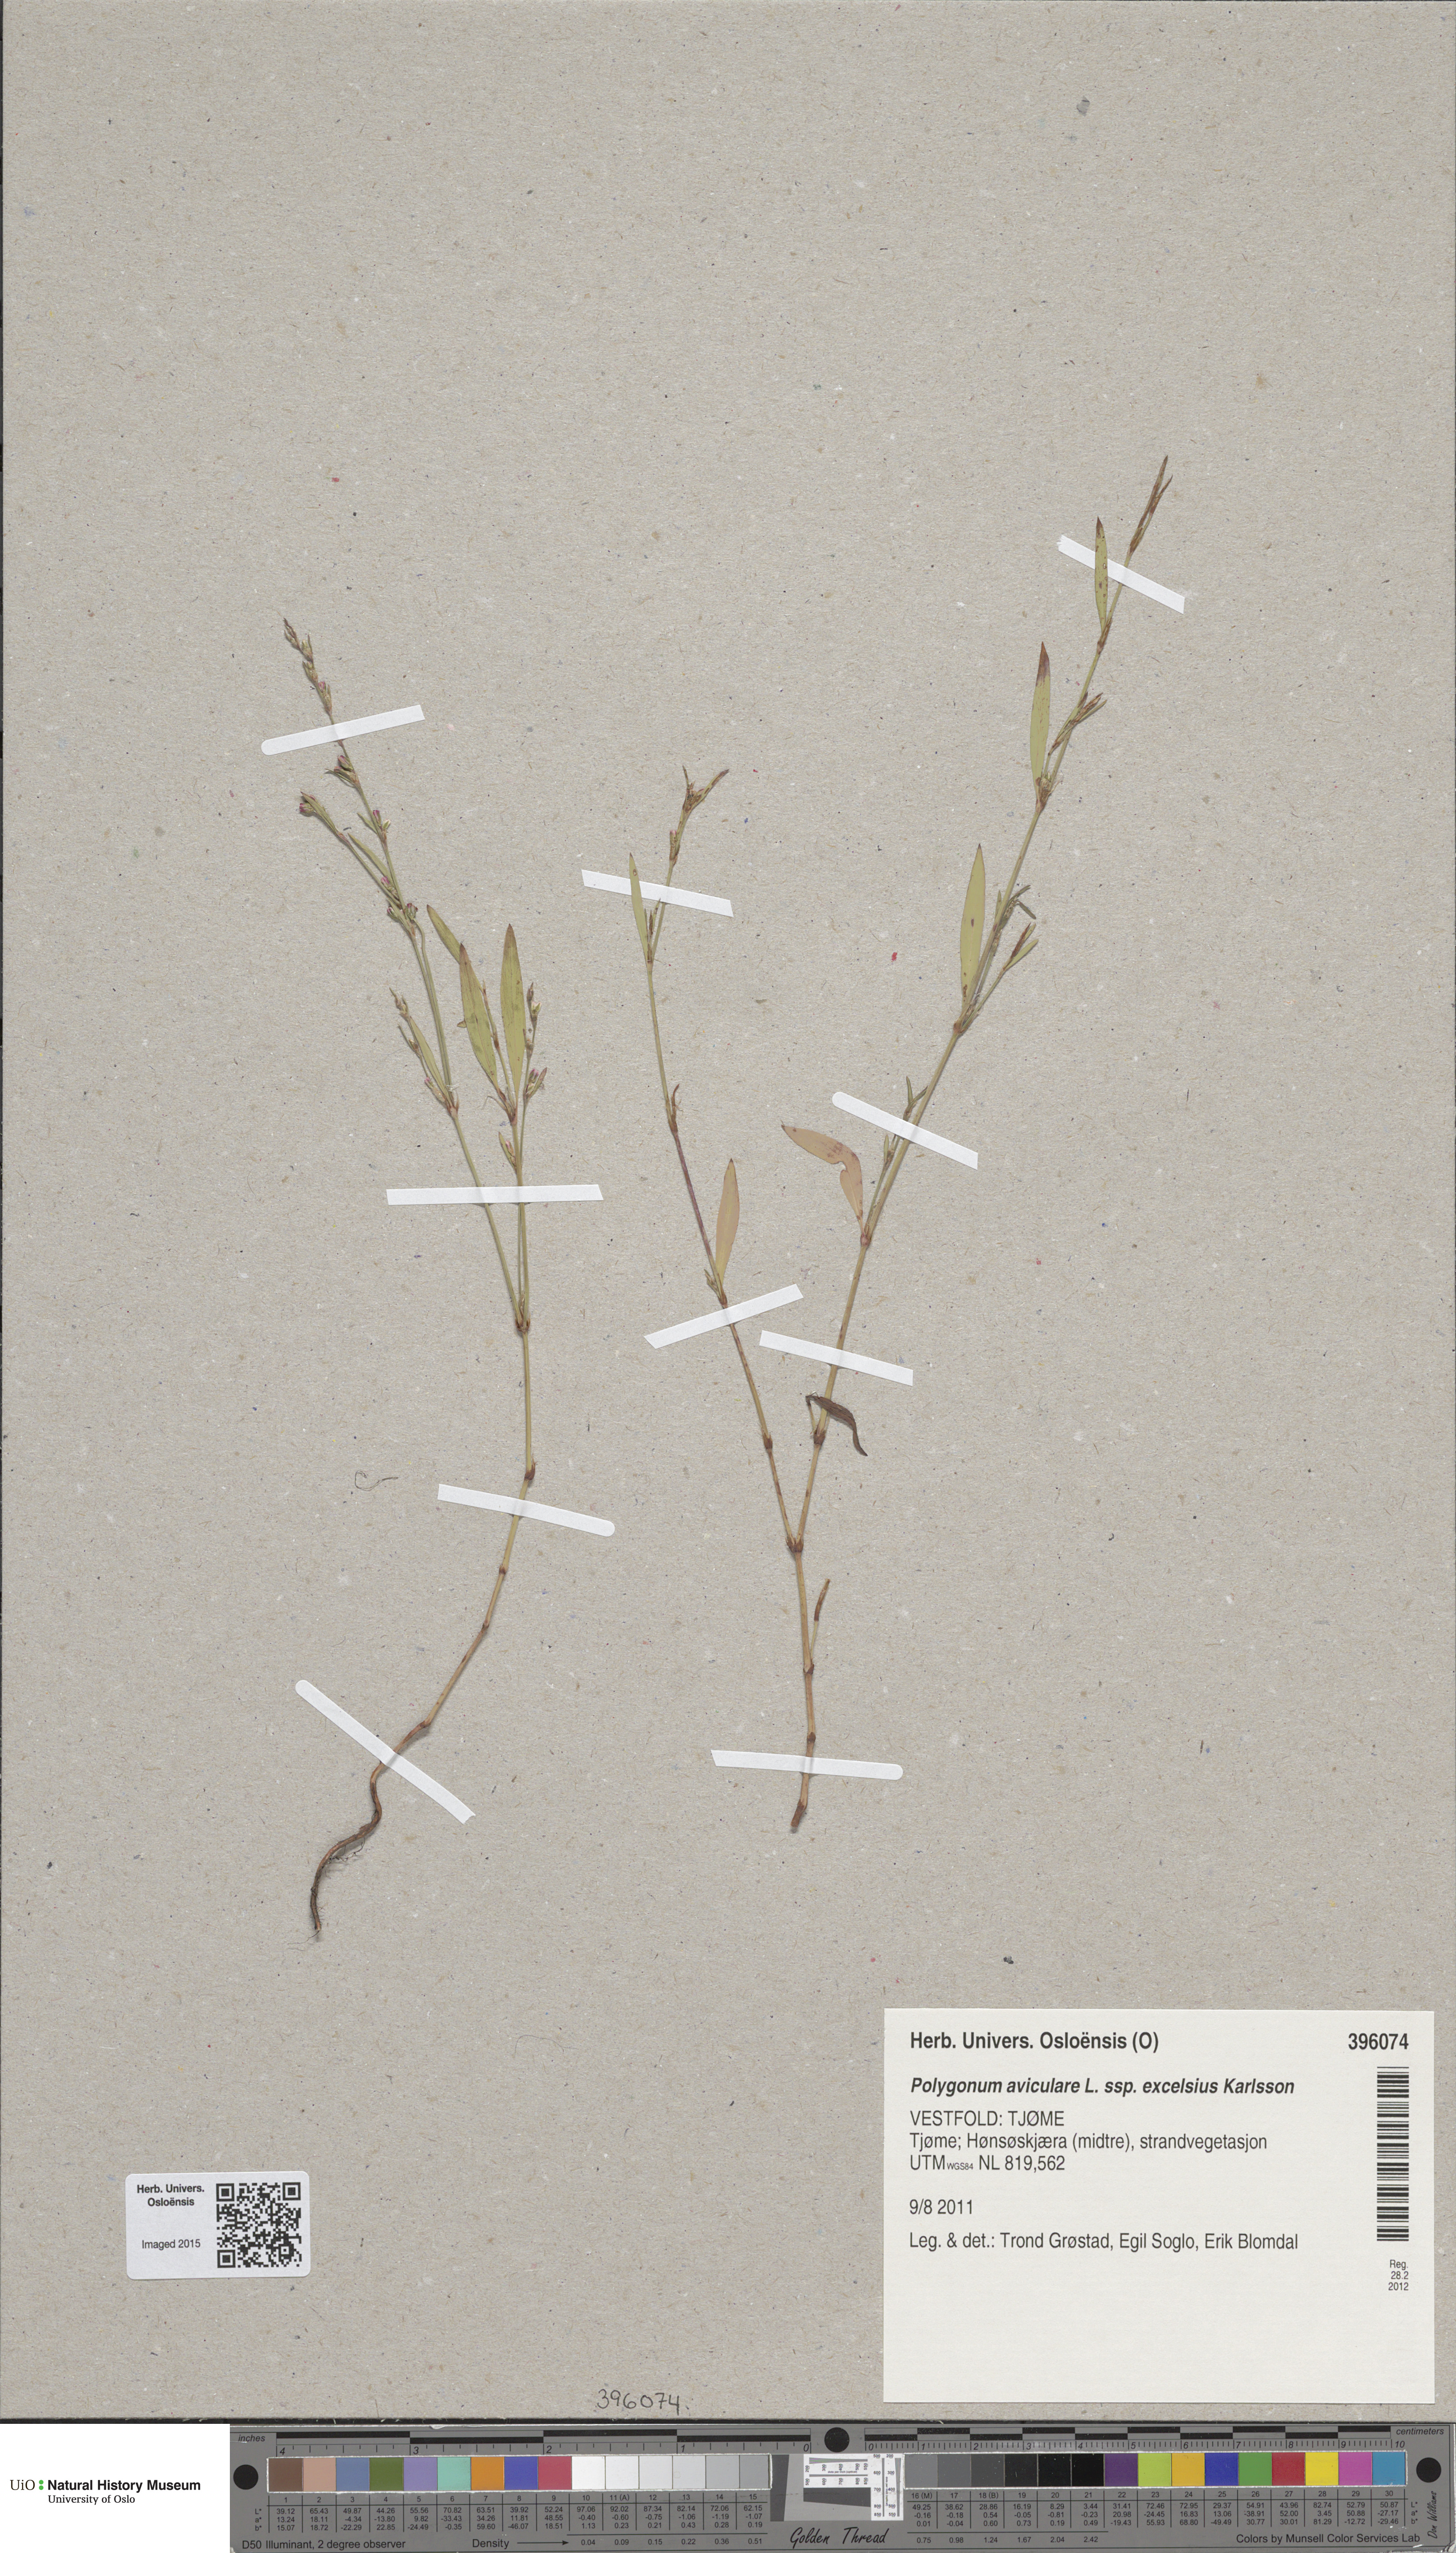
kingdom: Plantae
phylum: Tracheophyta
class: Magnoliopsida
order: Caryophyllales
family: Polygonaceae
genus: Polygonum
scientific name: Polygonum excelsius
